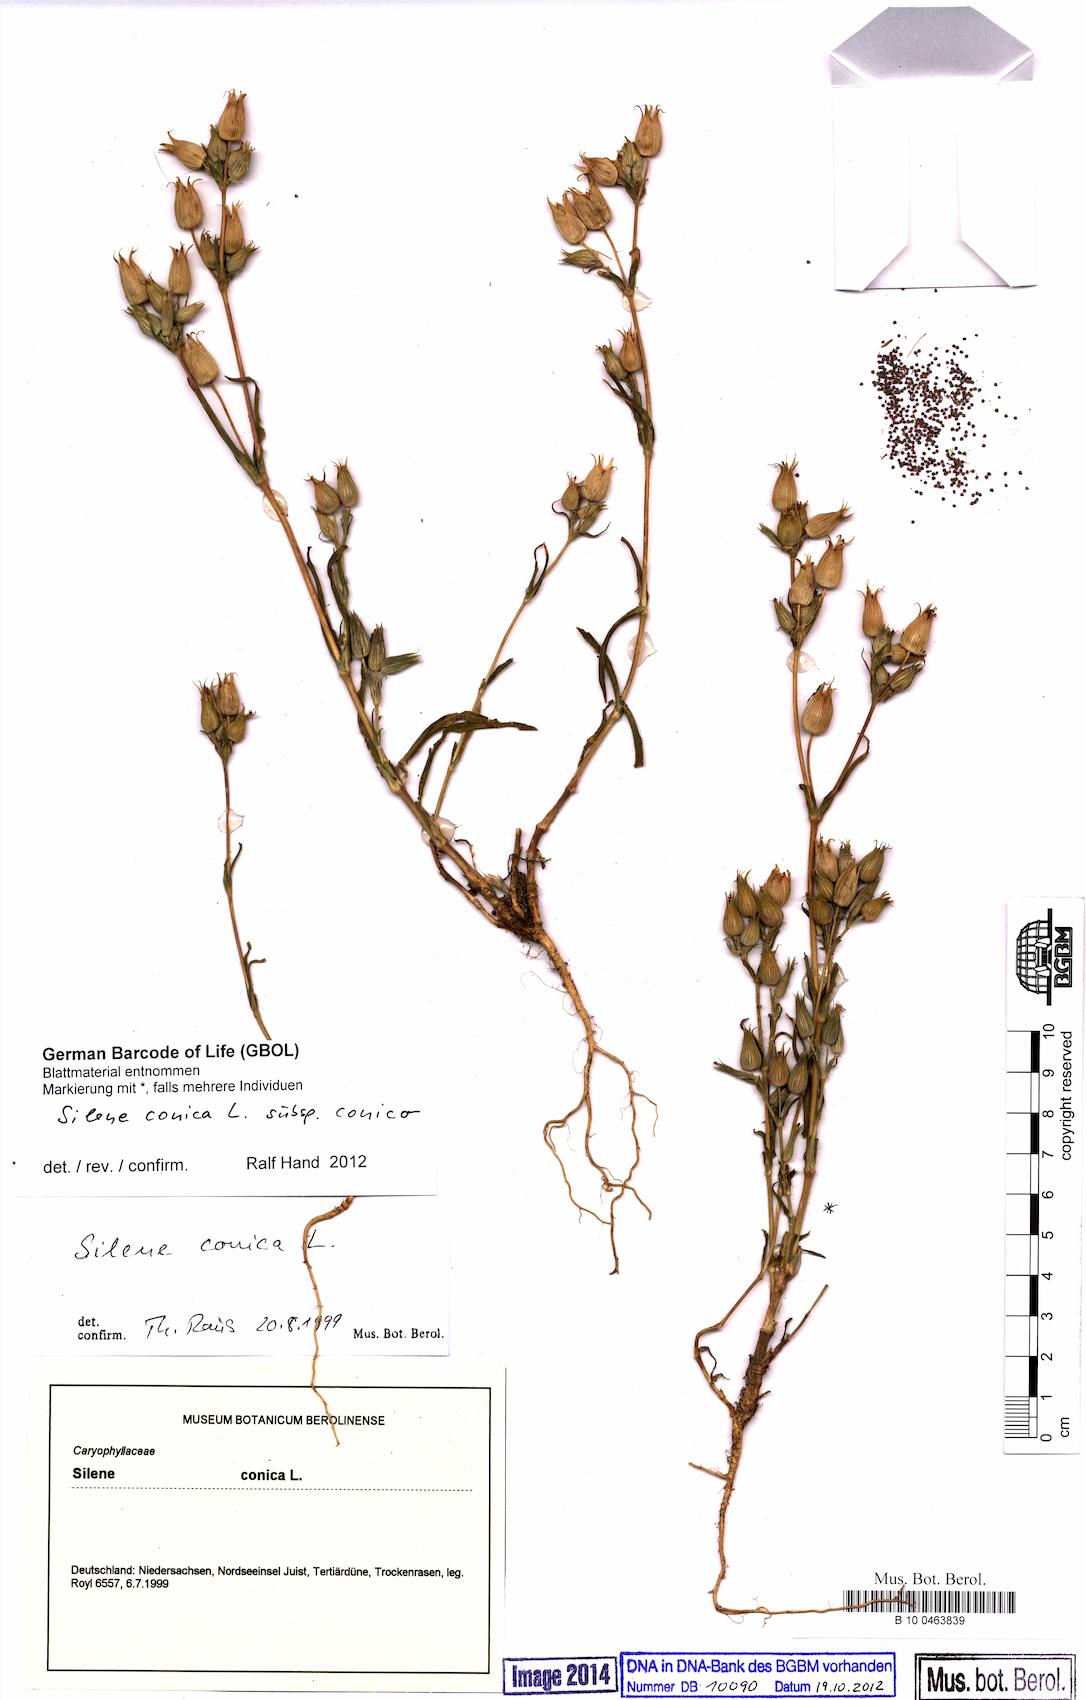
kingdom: Plantae
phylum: Tracheophyta
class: Magnoliopsida
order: Caryophyllales
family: Caryophyllaceae
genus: Silene
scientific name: Silene conica
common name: Sand catchfly
